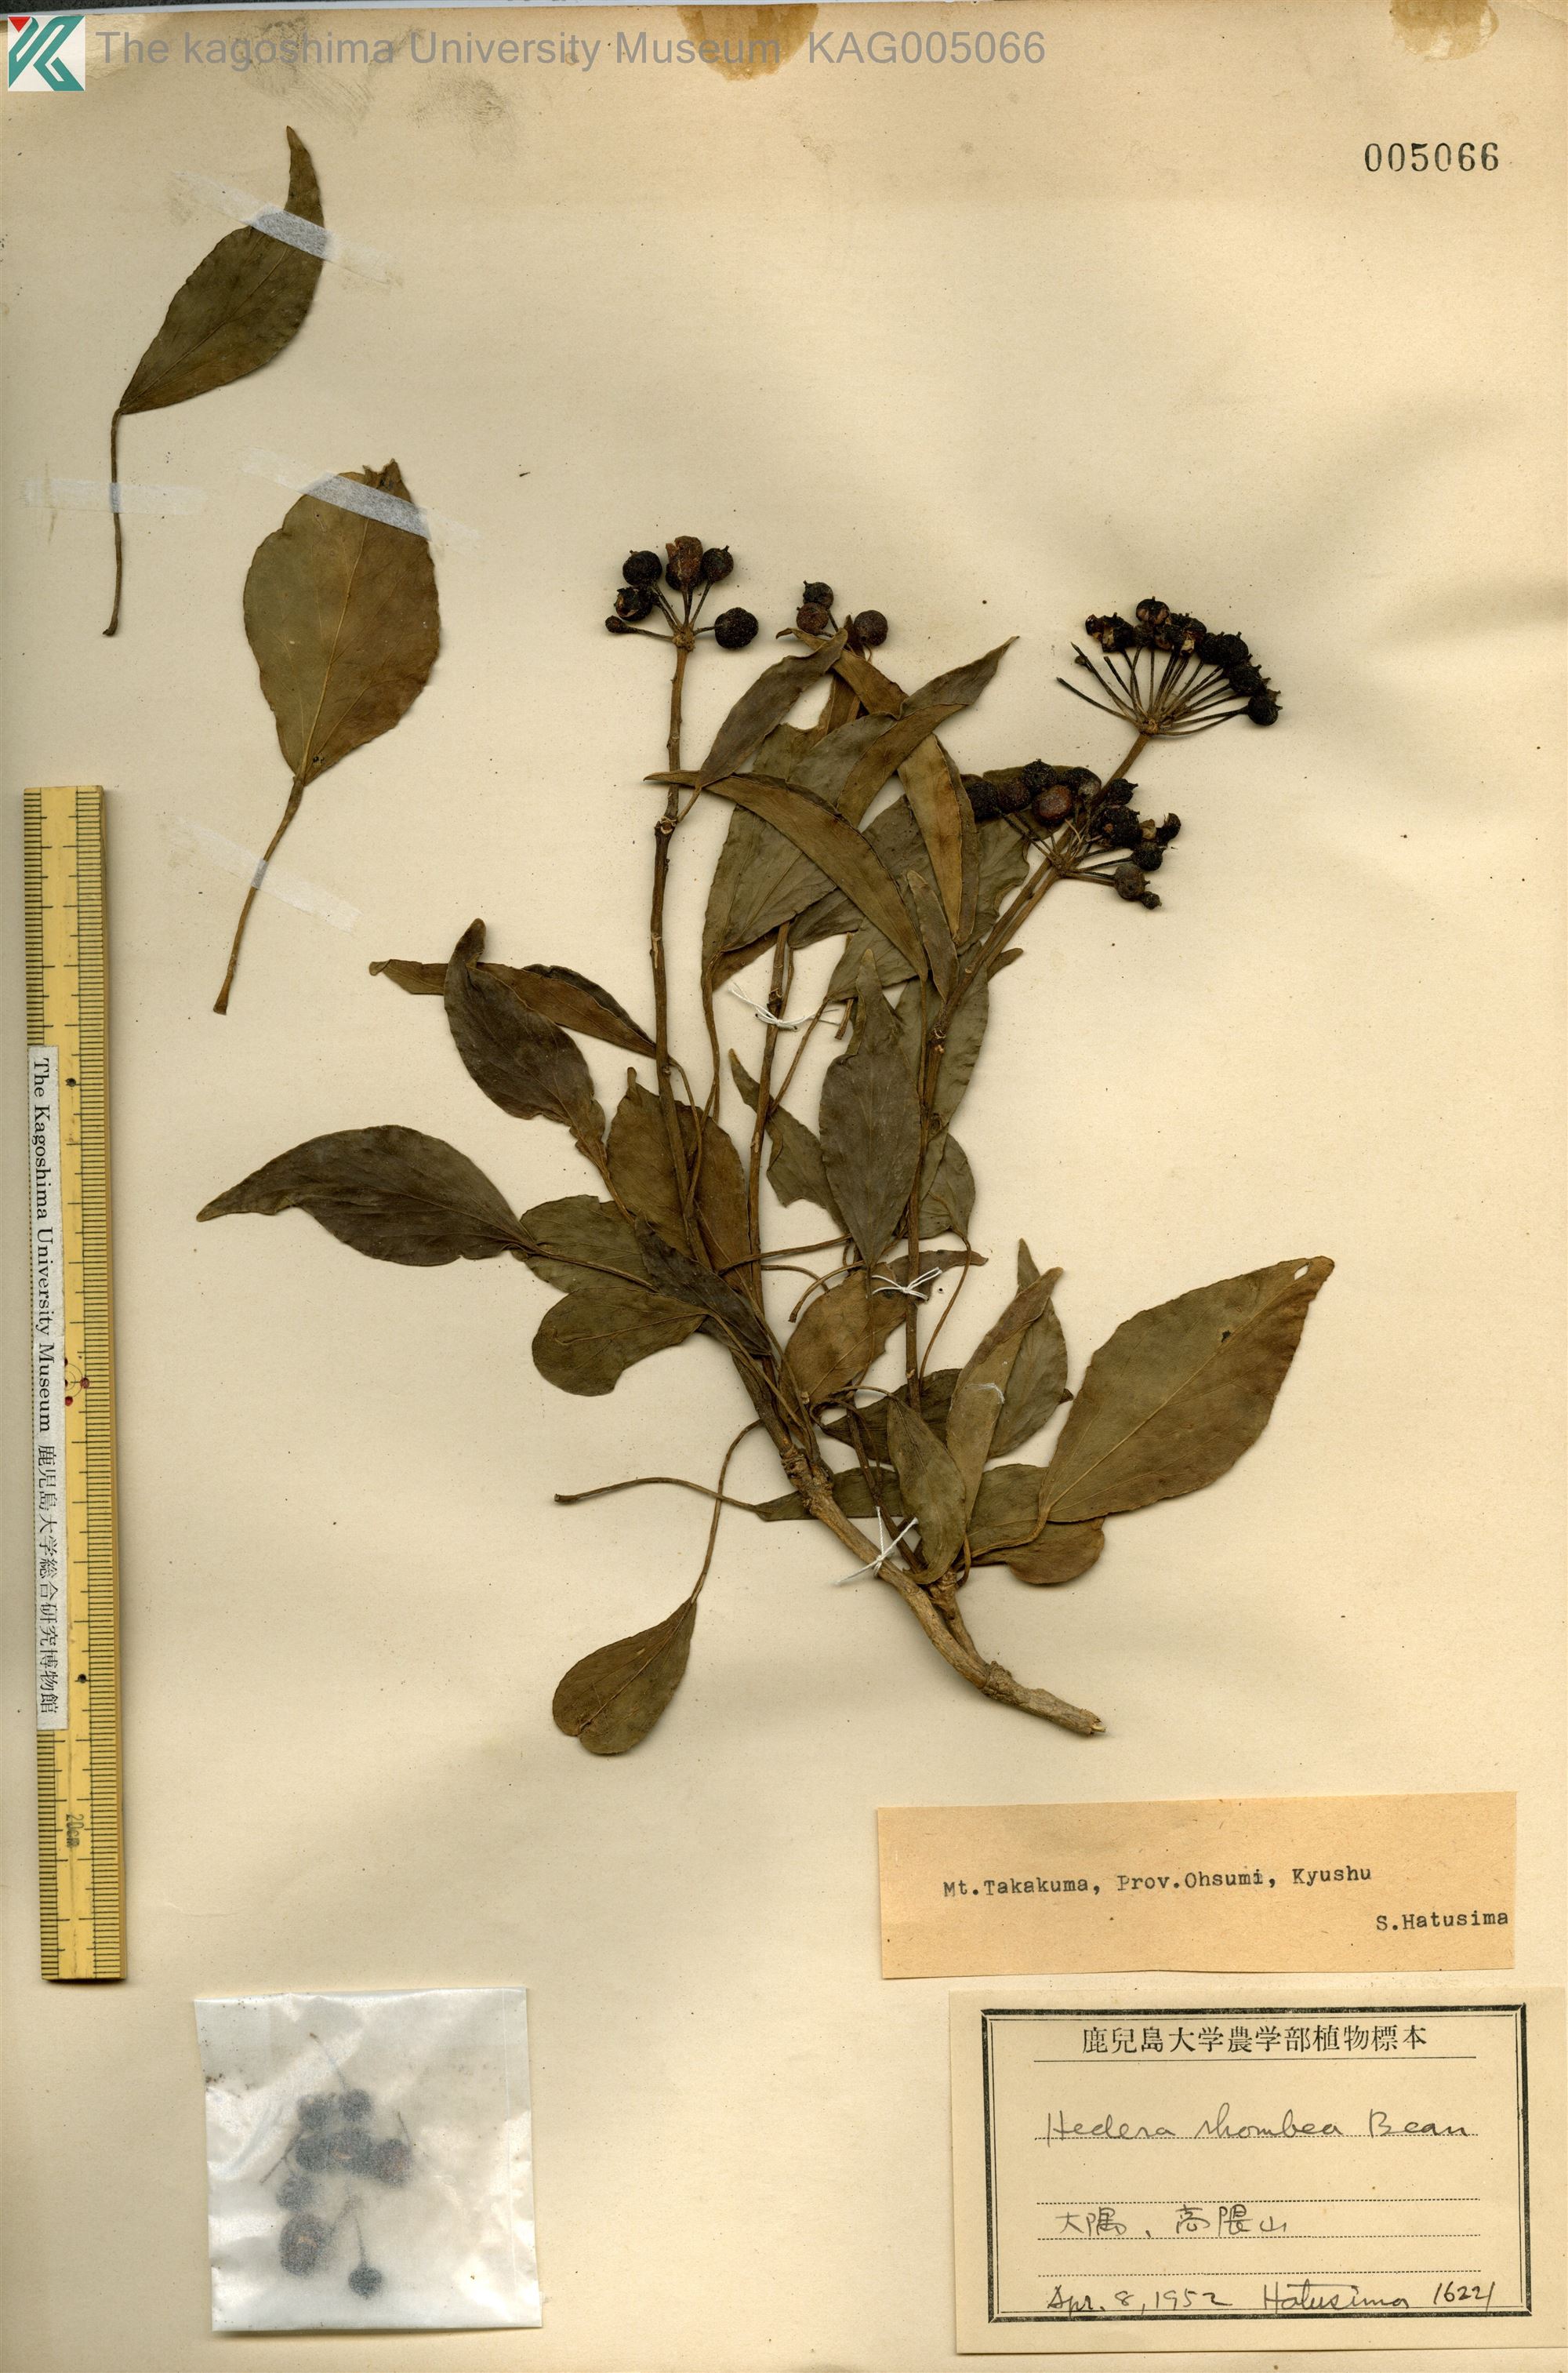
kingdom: Plantae
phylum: Tracheophyta
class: Magnoliopsida
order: Apiales
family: Araliaceae
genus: Hedera
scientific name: Hedera rhombea
